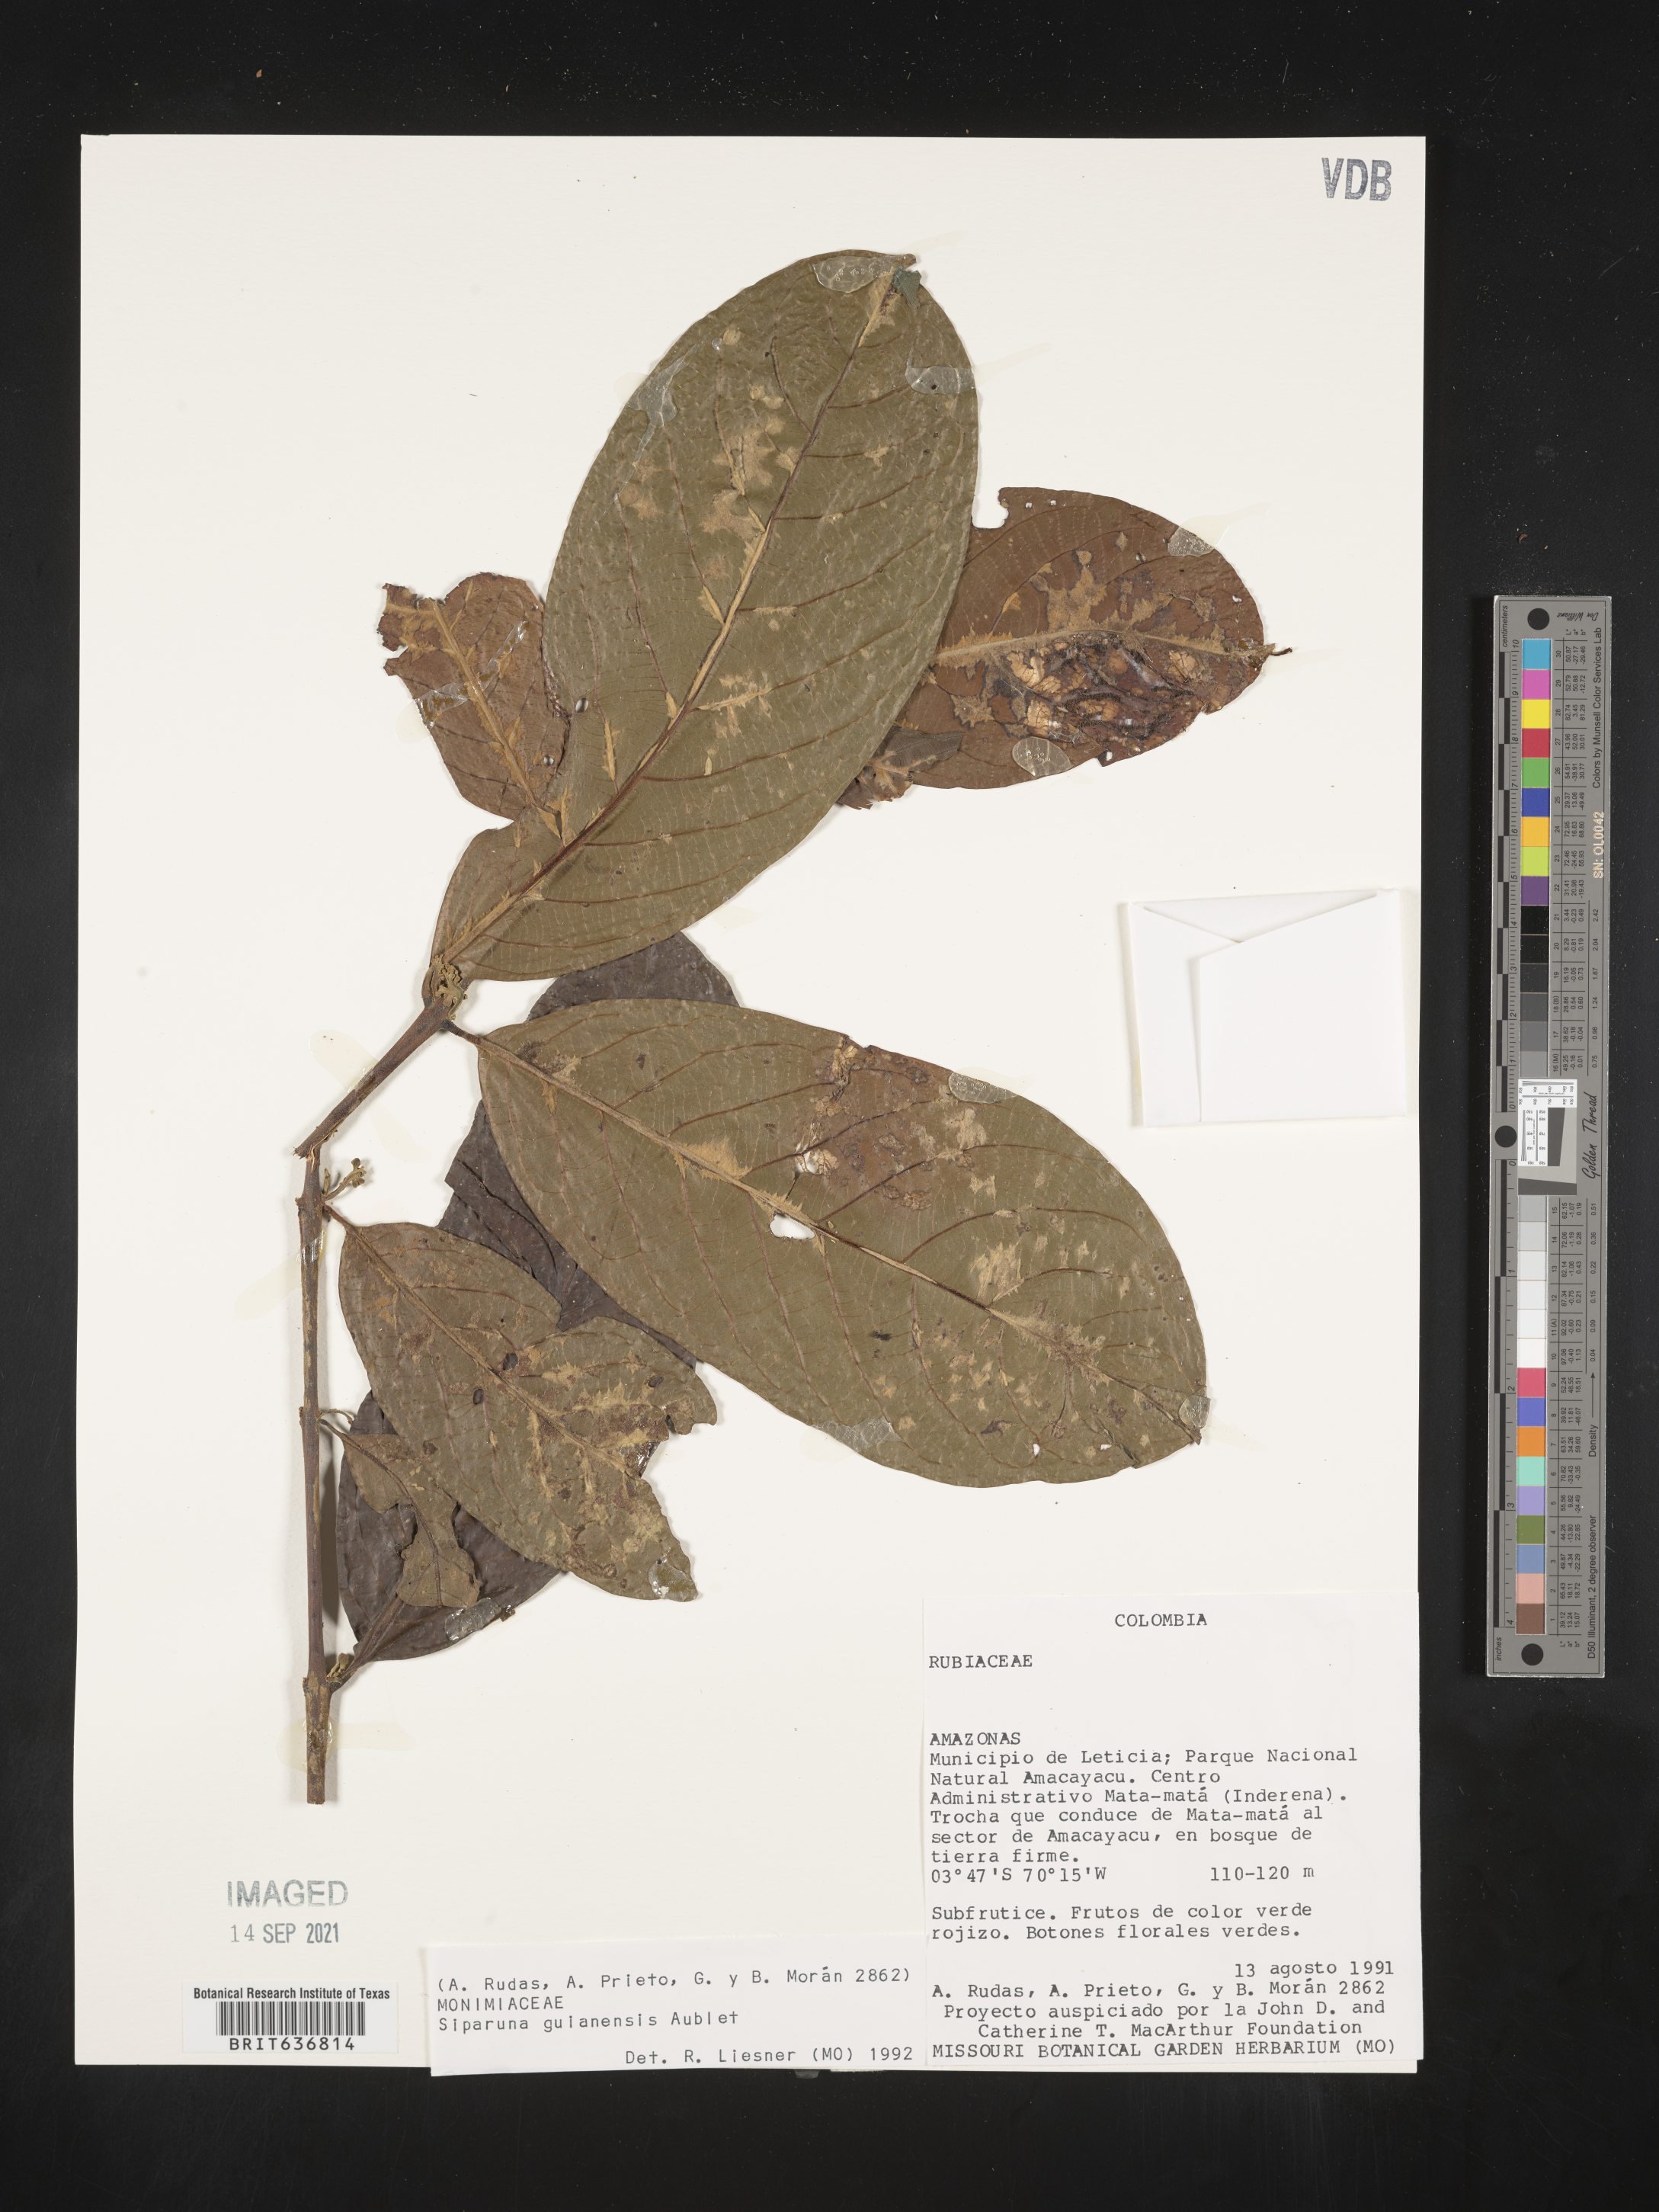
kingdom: Plantae
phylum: Tracheophyta
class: Magnoliopsida
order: Laurales
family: Siparunaceae
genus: Siparuna
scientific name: Siparuna
